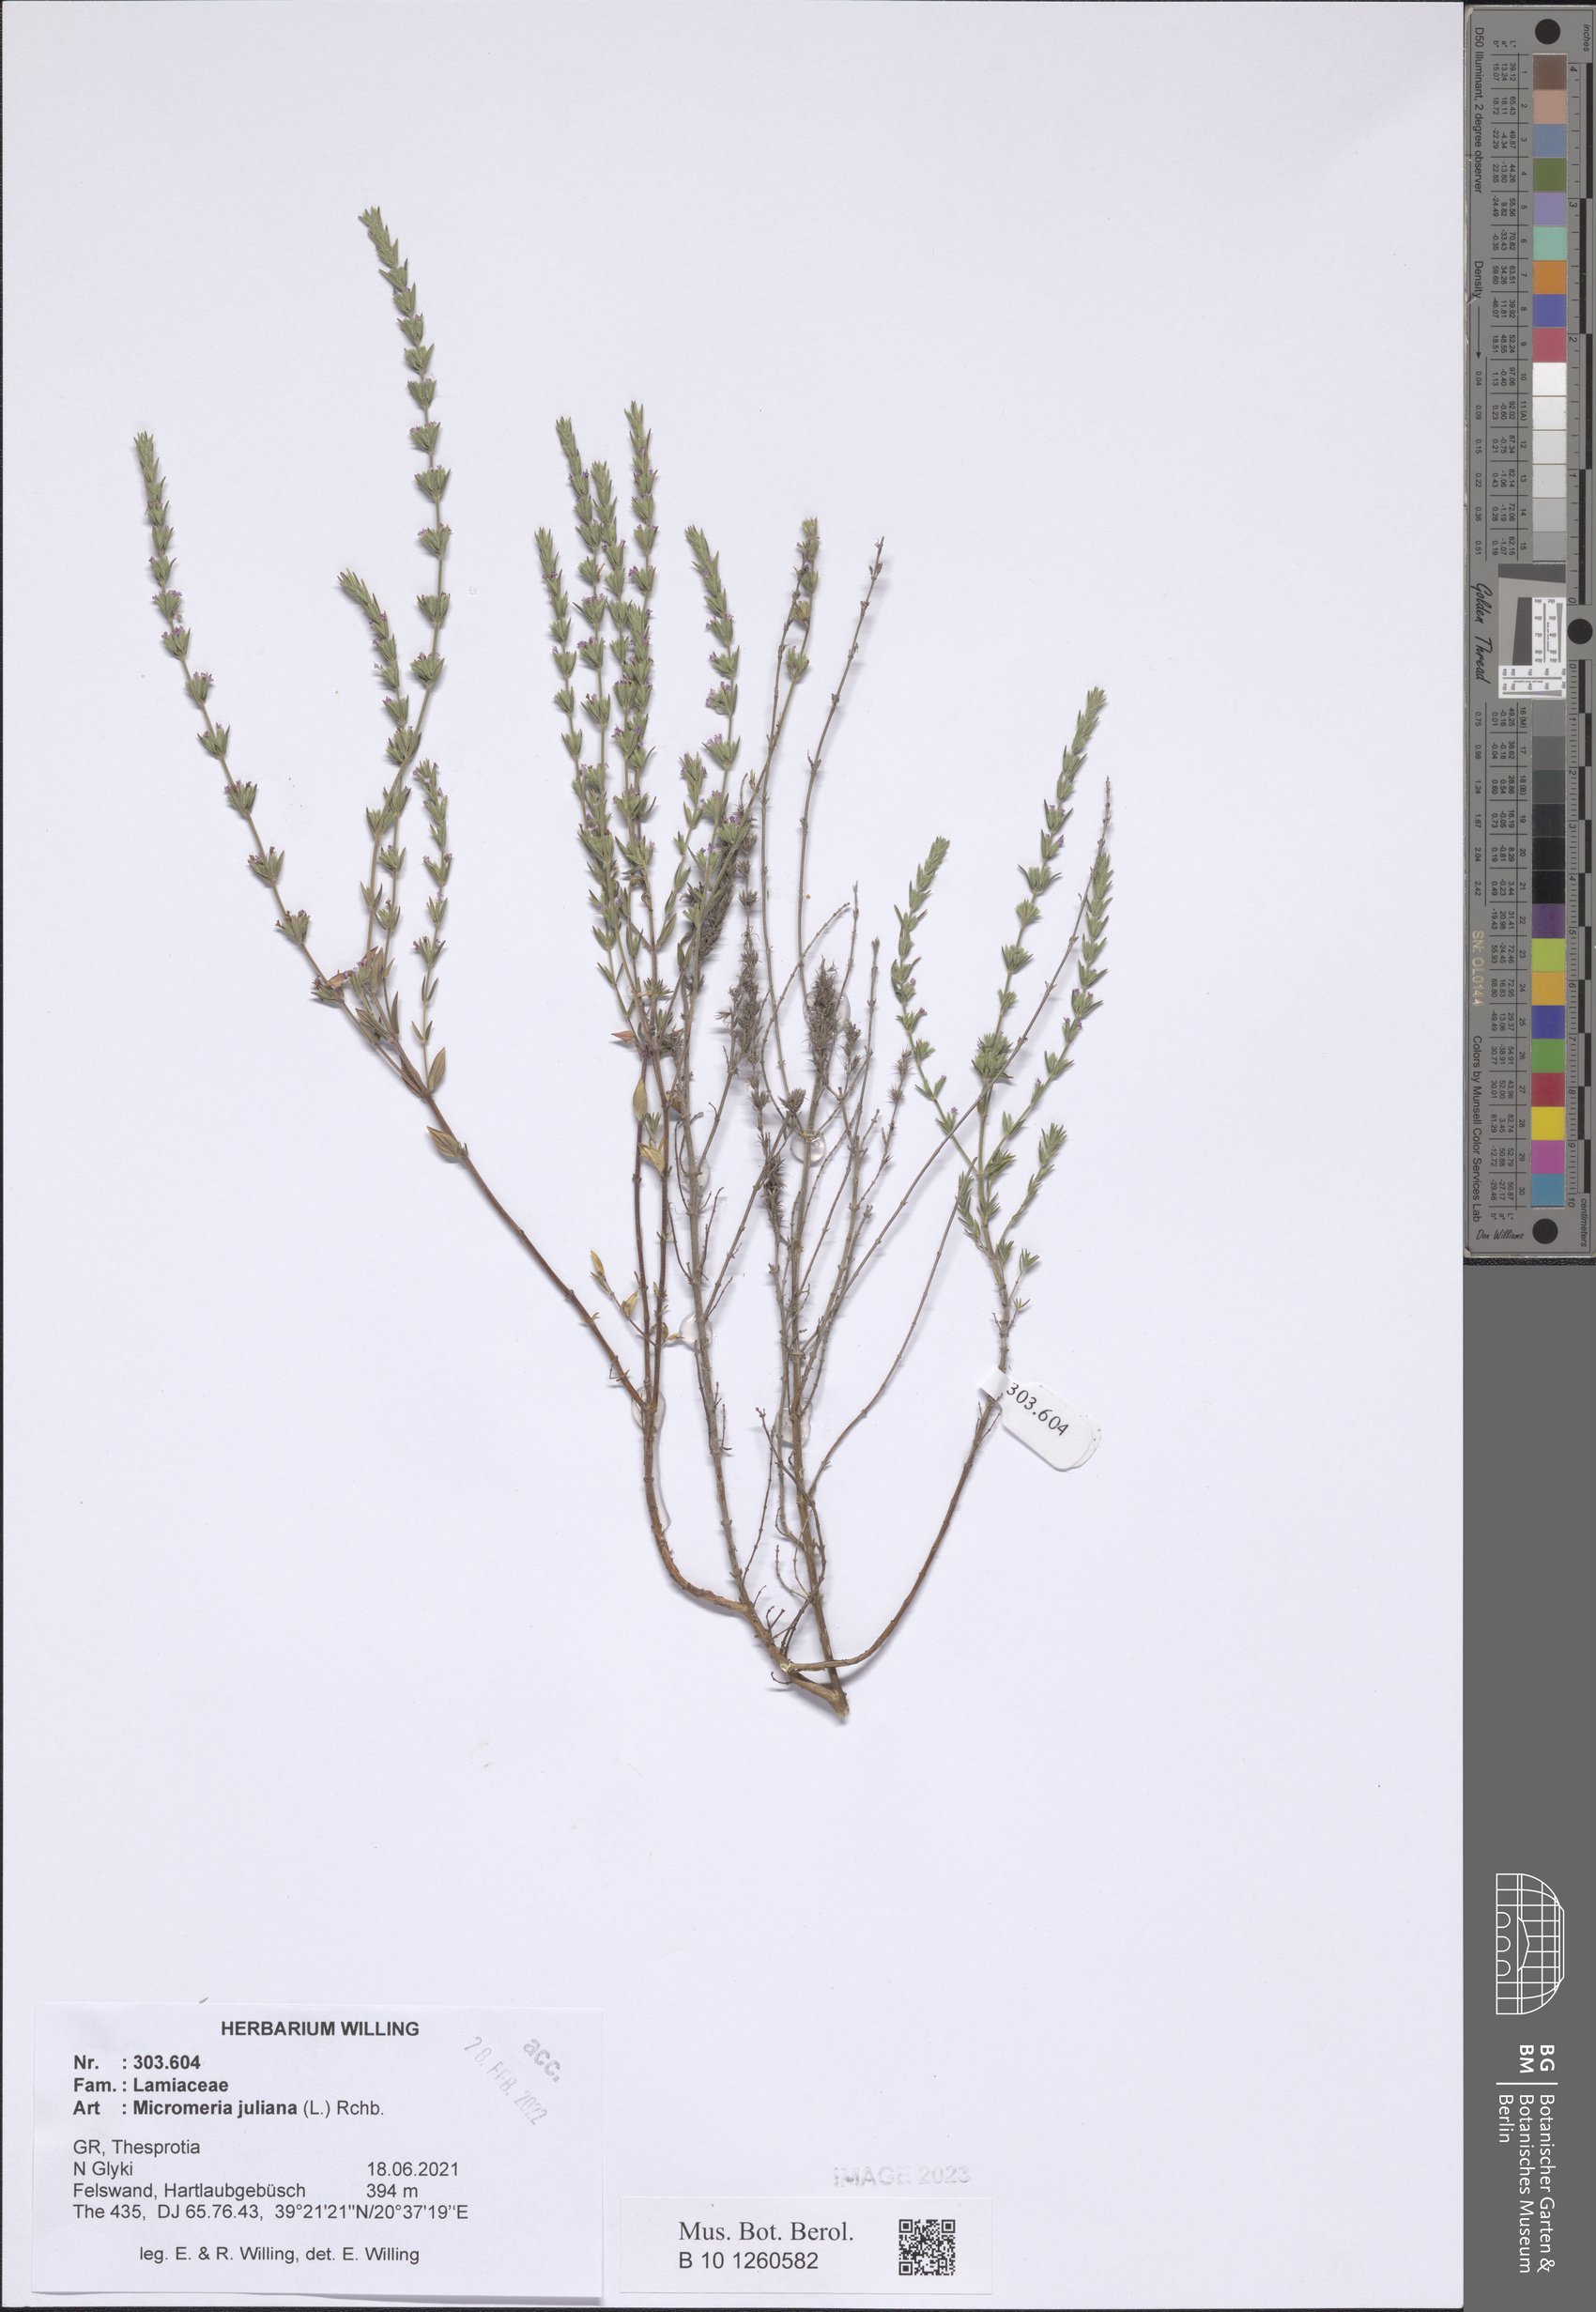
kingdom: Plantae
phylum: Tracheophyta
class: Magnoliopsida
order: Lamiales
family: Lamiaceae
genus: Micromeria
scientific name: Micromeria juliana
